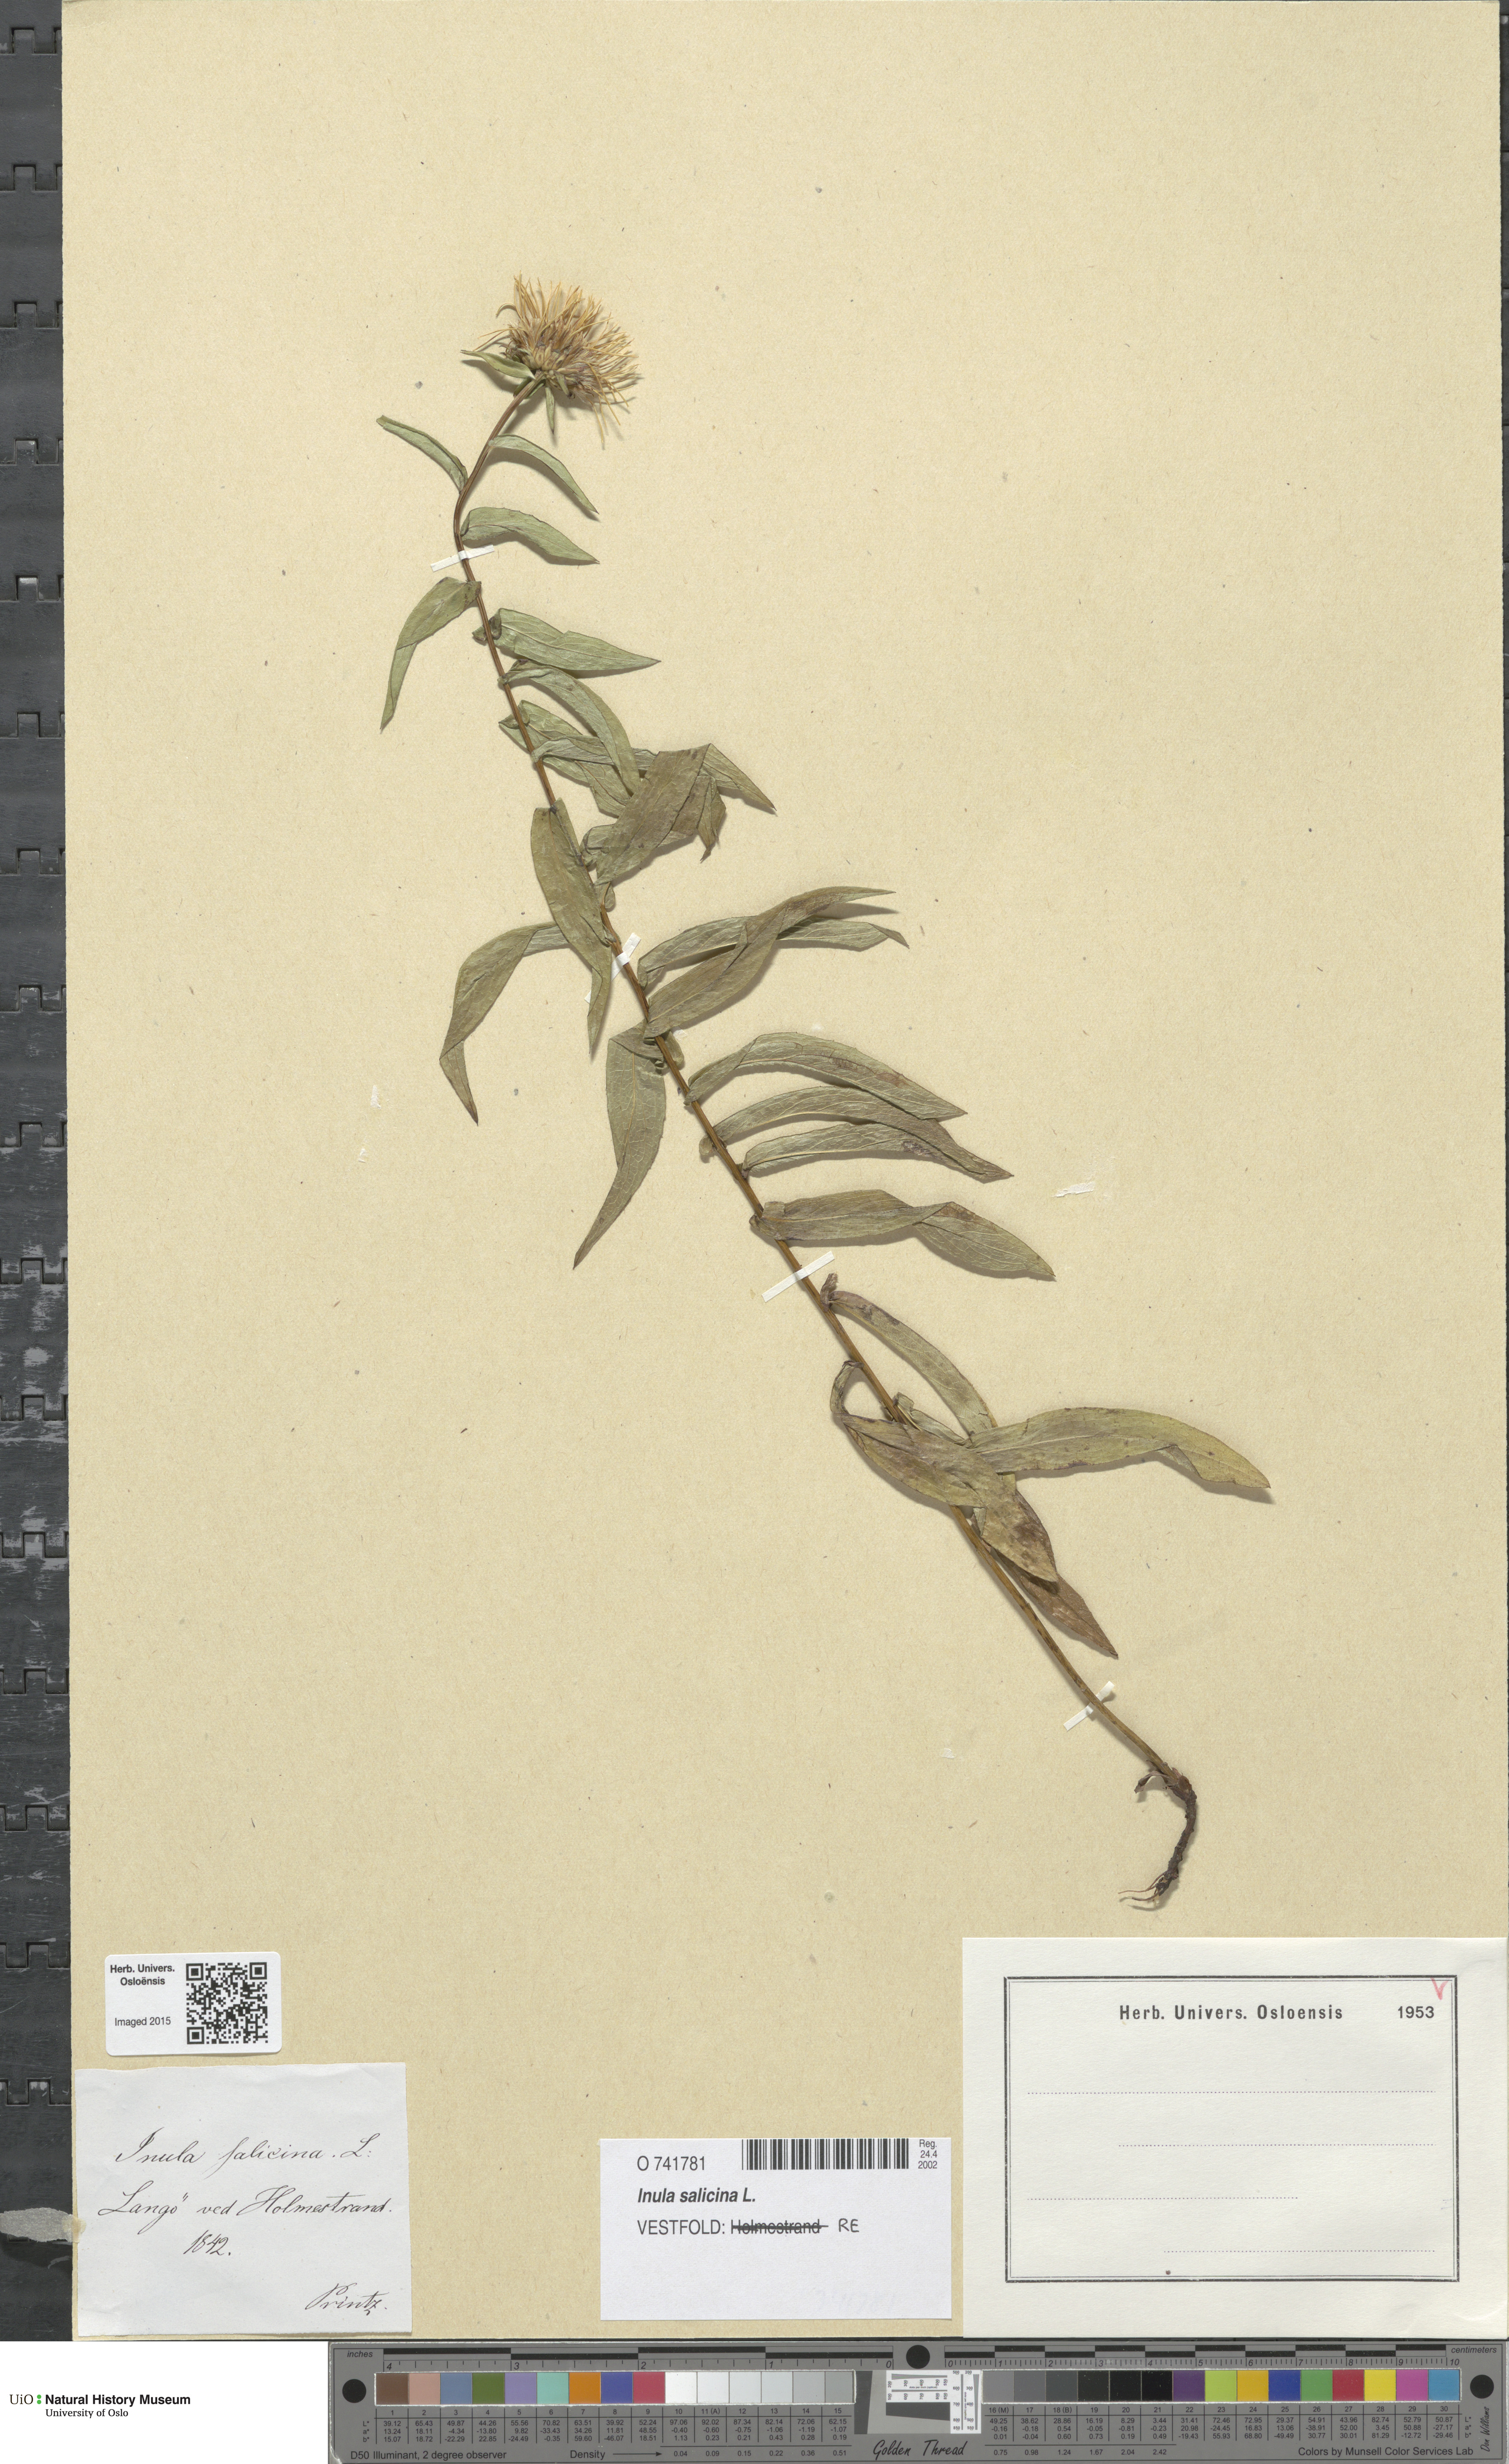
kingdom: Plantae
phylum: Tracheophyta
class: Magnoliopsida
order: Asterales
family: Asteraceae
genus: Pentanema
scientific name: Pentanema salicinum
